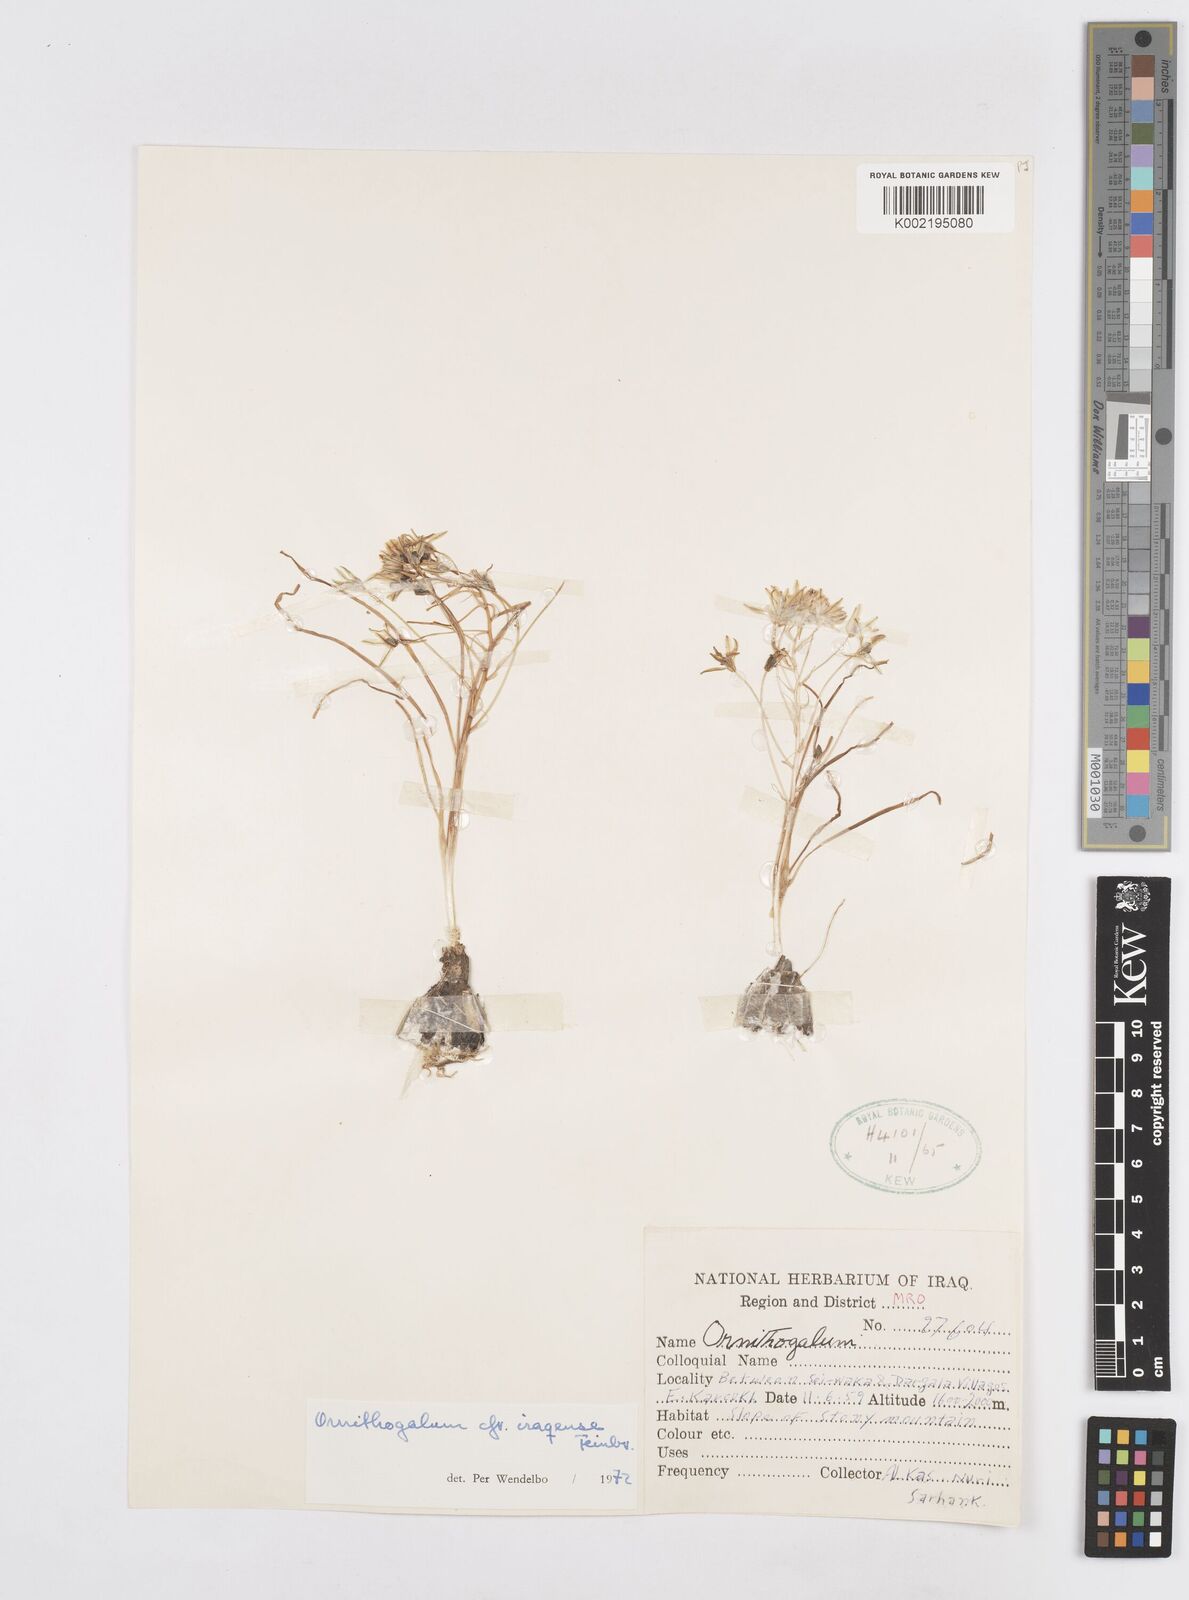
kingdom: Plantae
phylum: Tracheophyta
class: Liliopsida
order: Asparagales
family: Asparagaceae
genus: Ornithogalum
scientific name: Ornithogalum iraqense
